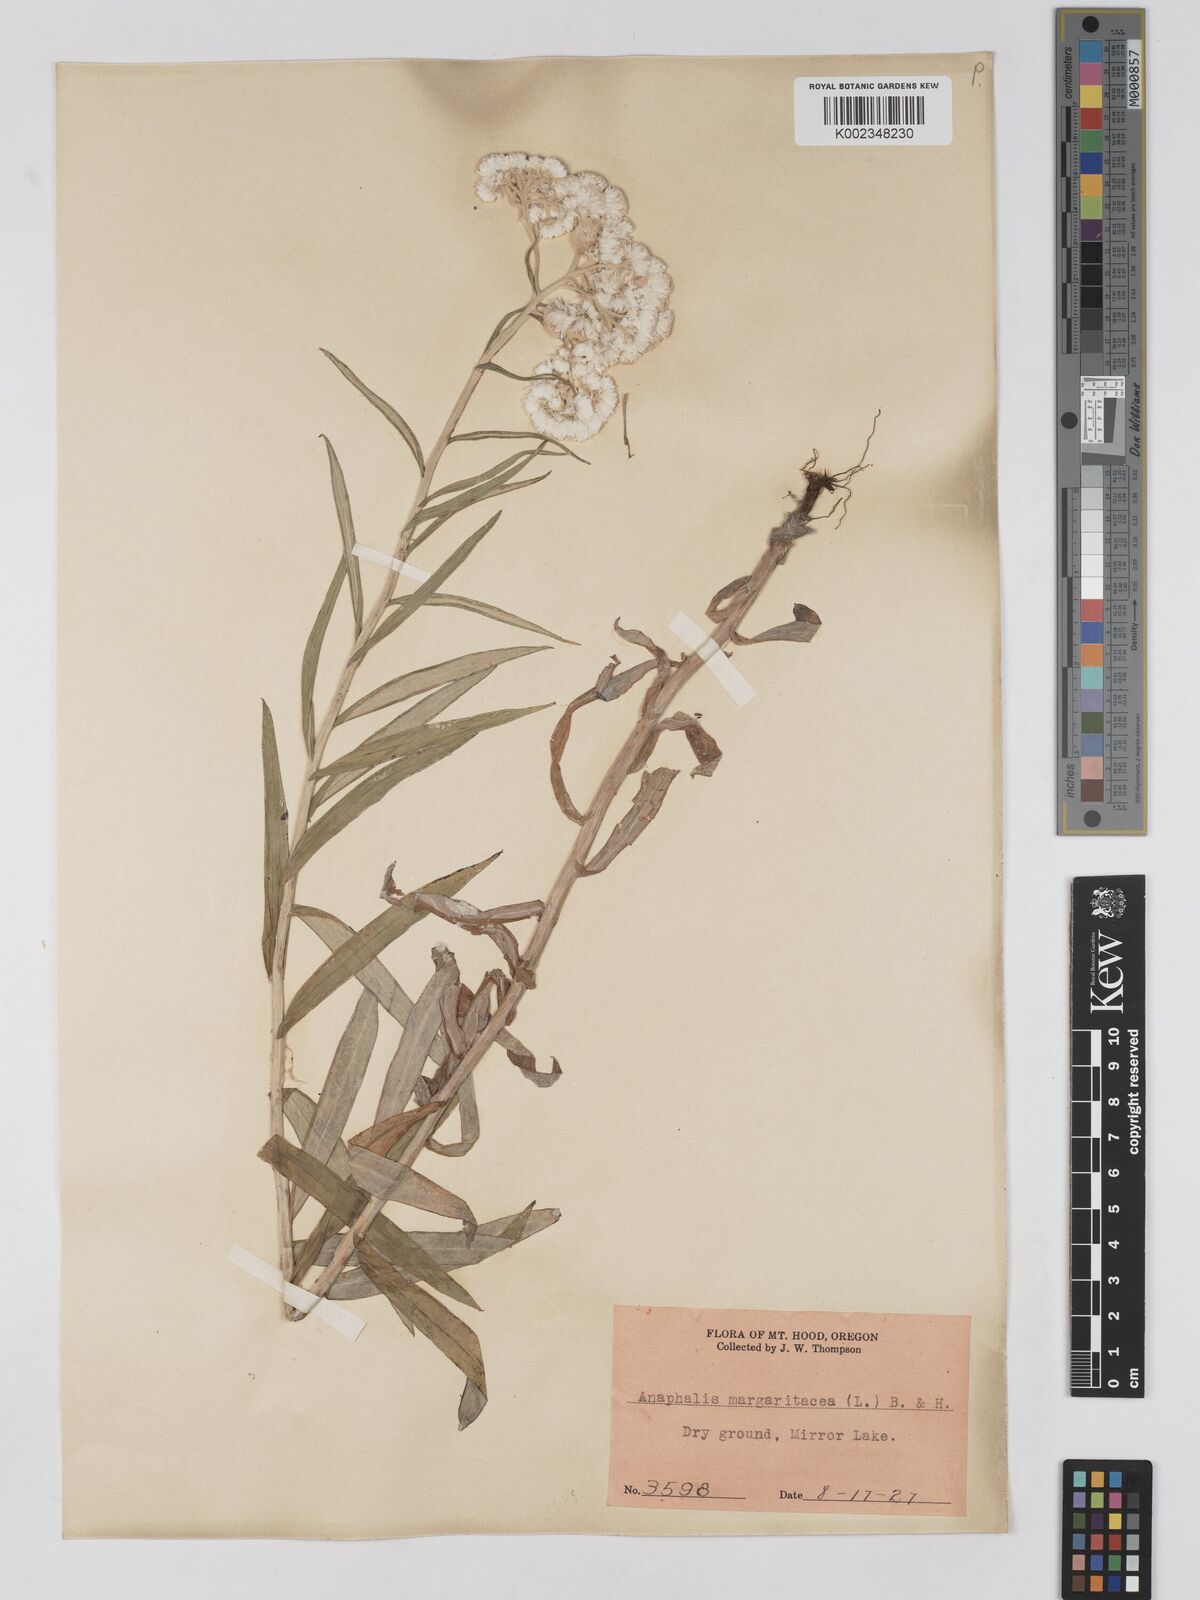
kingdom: Plantae
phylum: Tracheophyta
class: Magnoliopsida
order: Asterales
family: Asteraceae
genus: Anaphalis
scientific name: Anaphalis margaritacea
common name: Pearly everlasting
